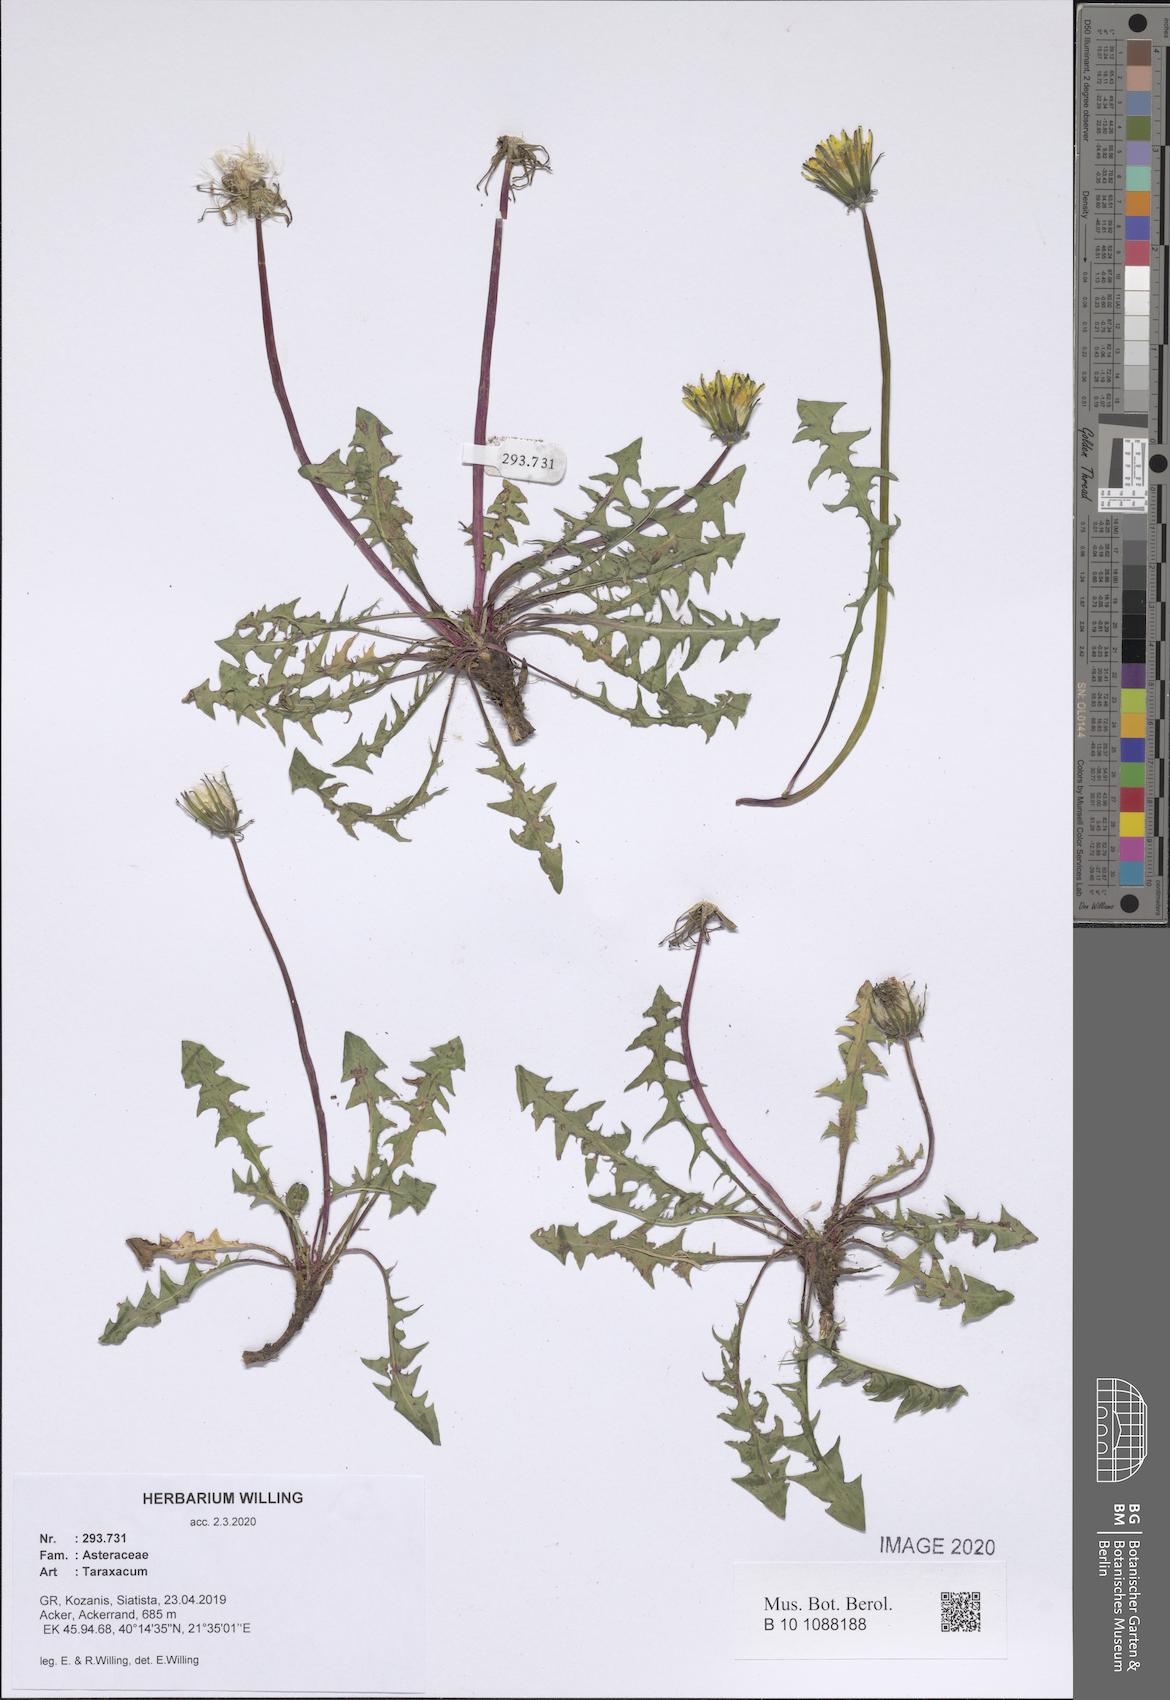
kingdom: Plantae
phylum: Tracheophyta
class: Magnoliopsida
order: Asterales
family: Asteraceae
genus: Taraxacum
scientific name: Taraxacum
